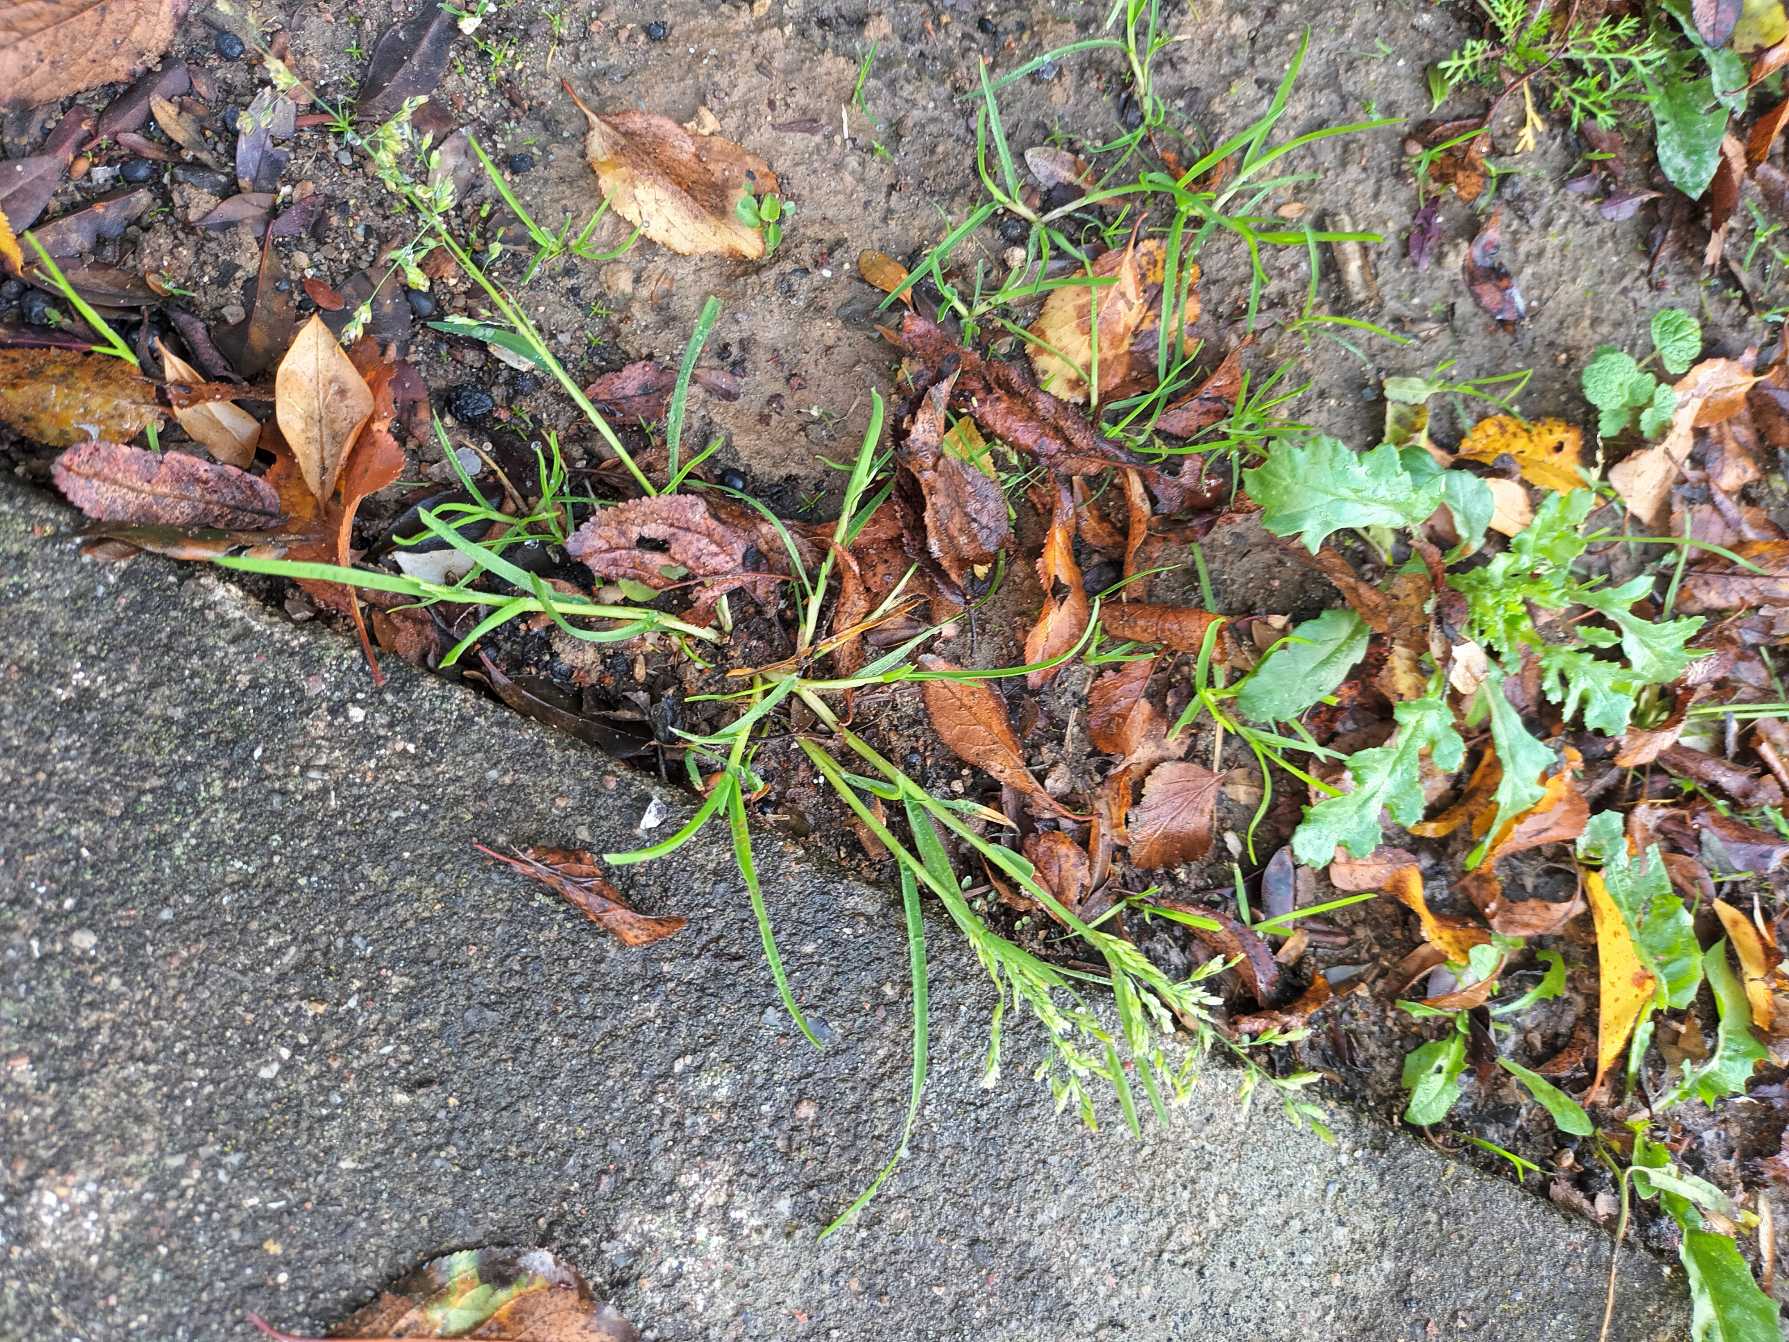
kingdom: Plantae
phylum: Tracheophyta
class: Liliopsida
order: Poales
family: Poaceae
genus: Poa
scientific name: Poa annua
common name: Enårig rapgræs
